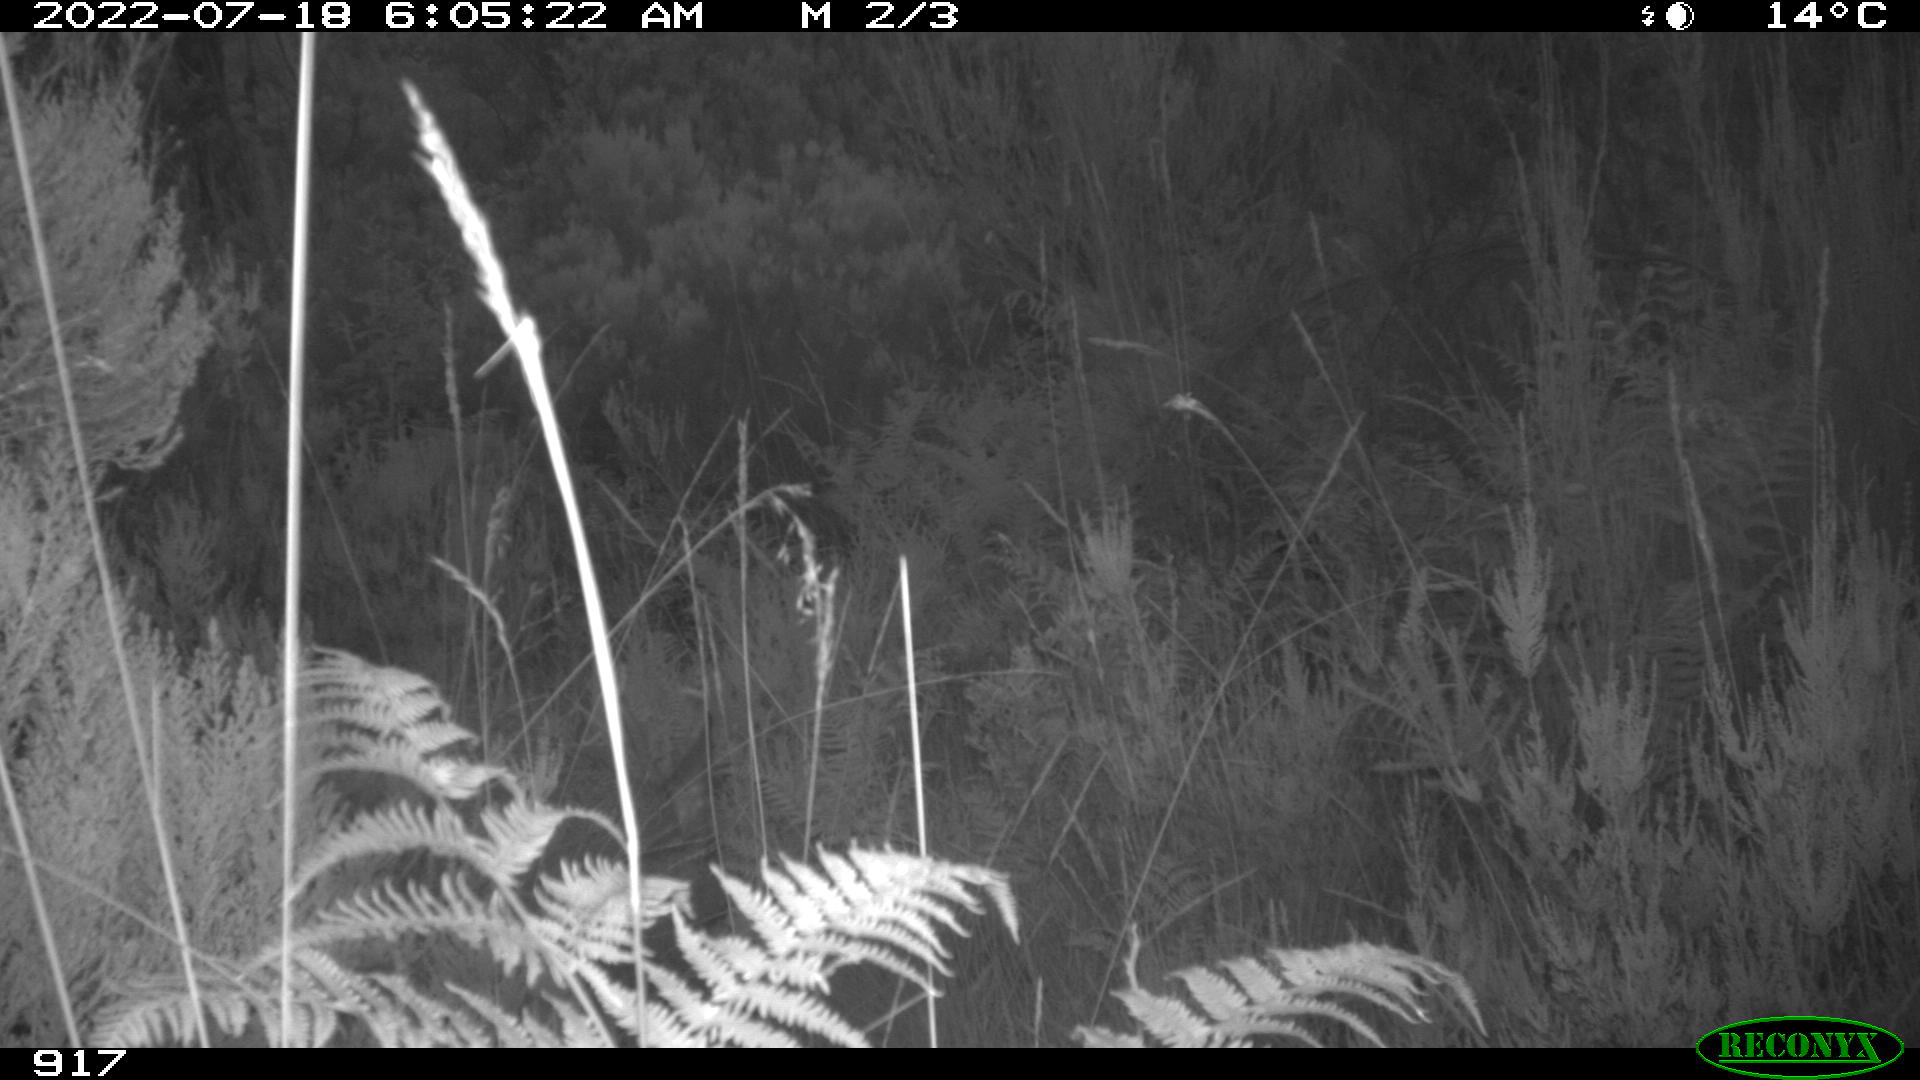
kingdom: Animalia
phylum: Chordata
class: Mammalia
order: Artiodactyla
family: Cervidae
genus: Capreolus
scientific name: Capreolus capreolus
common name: Western roe deer
